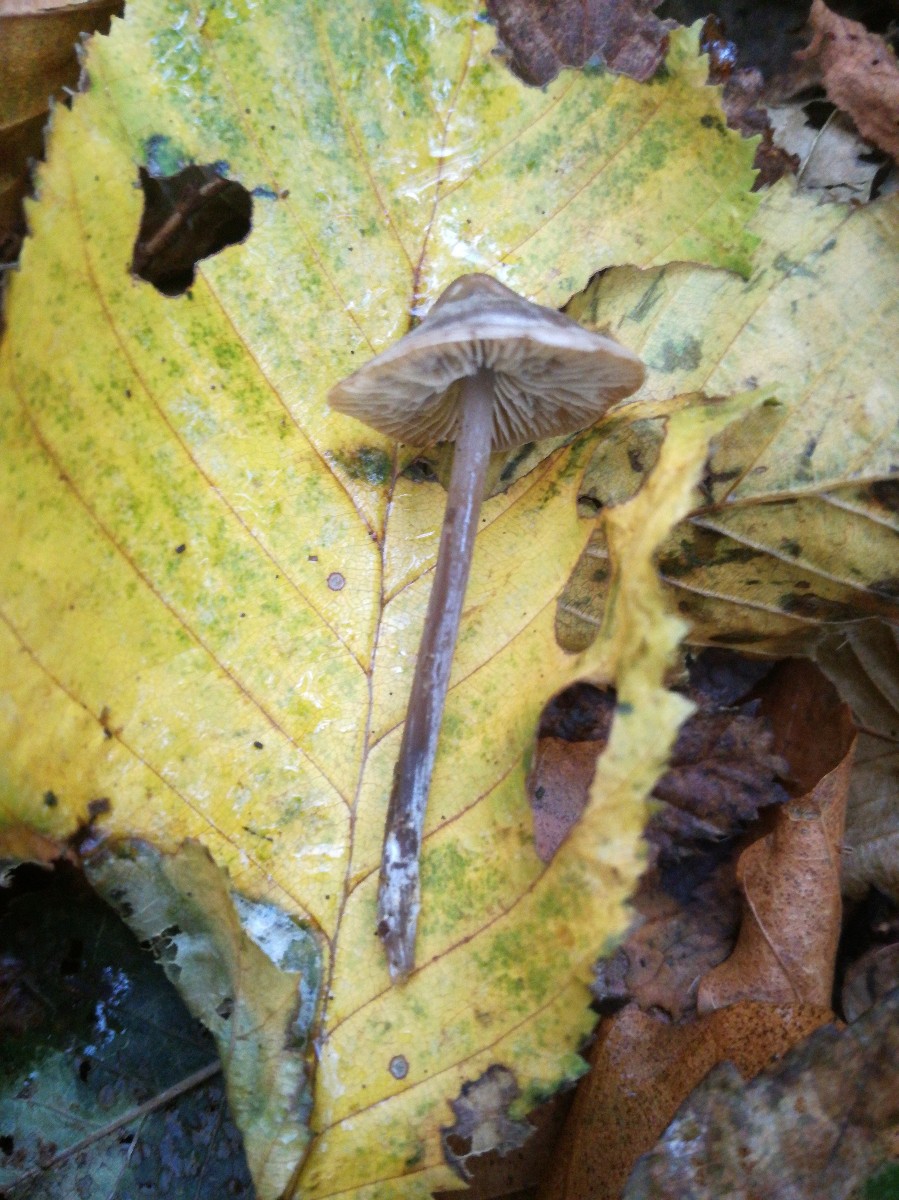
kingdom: Fungi
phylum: Basidiomycota
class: Agaricomycetes
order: Agaricales
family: Lyophyllaceae
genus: Tephrocybe
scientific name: Tephrocybe rancida
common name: mel-gråblad
